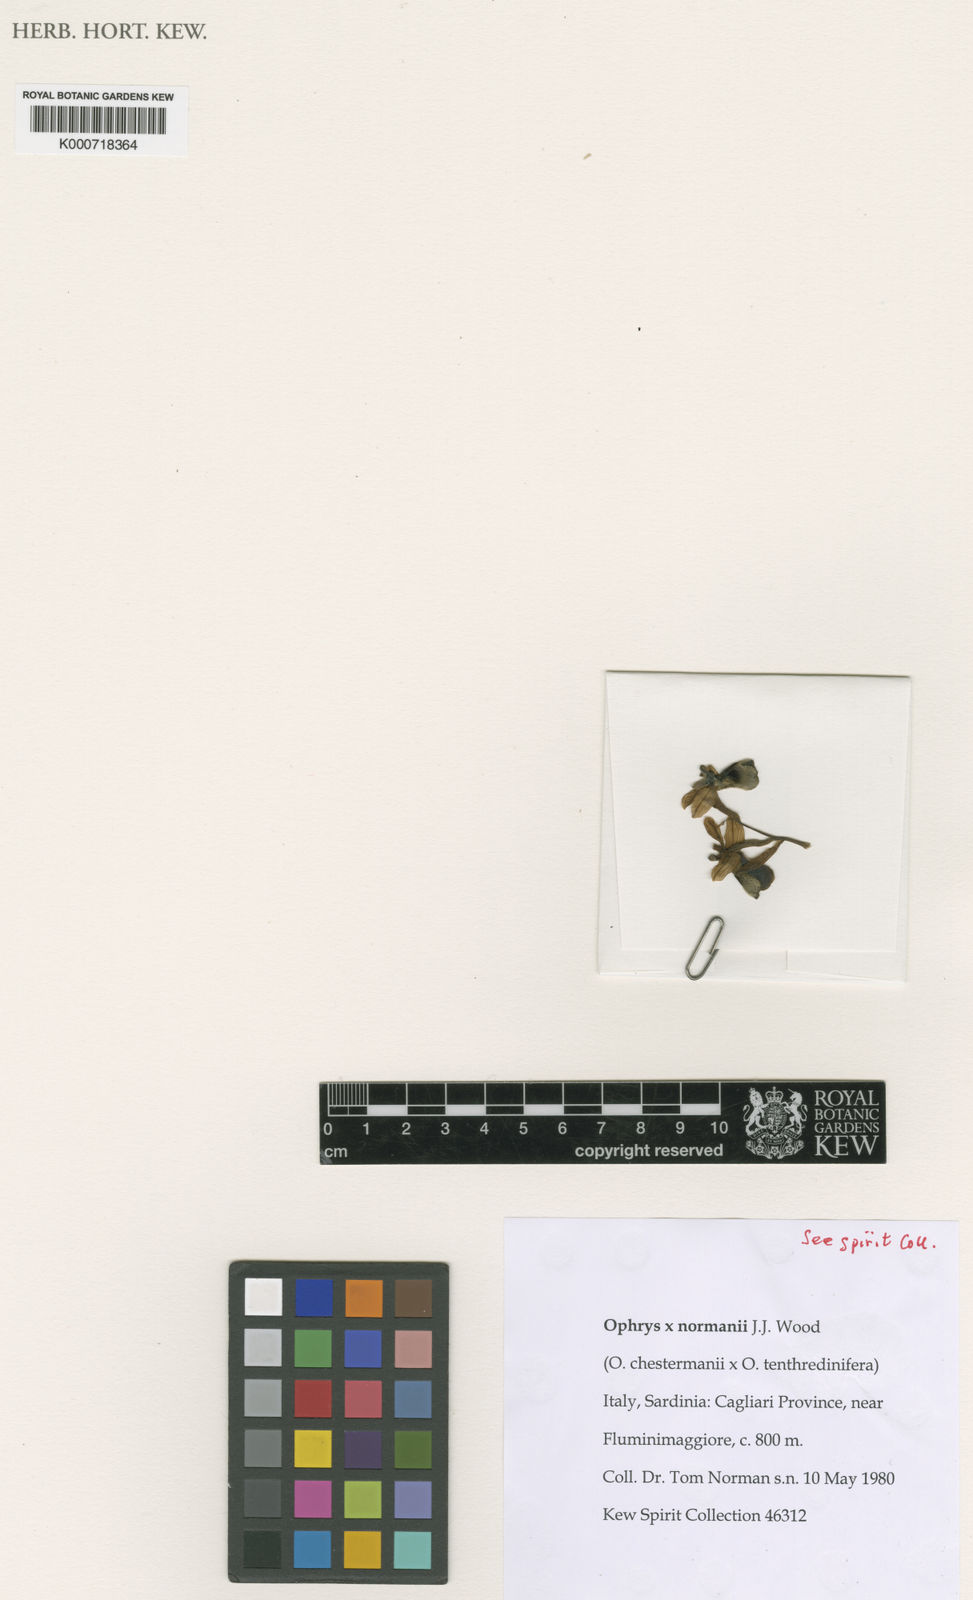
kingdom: Plantae
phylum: Tracheophyta
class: Liliopsida
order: Asparagales
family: Orchidaceae
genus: Ophrys
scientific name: Ophrys maremmae
